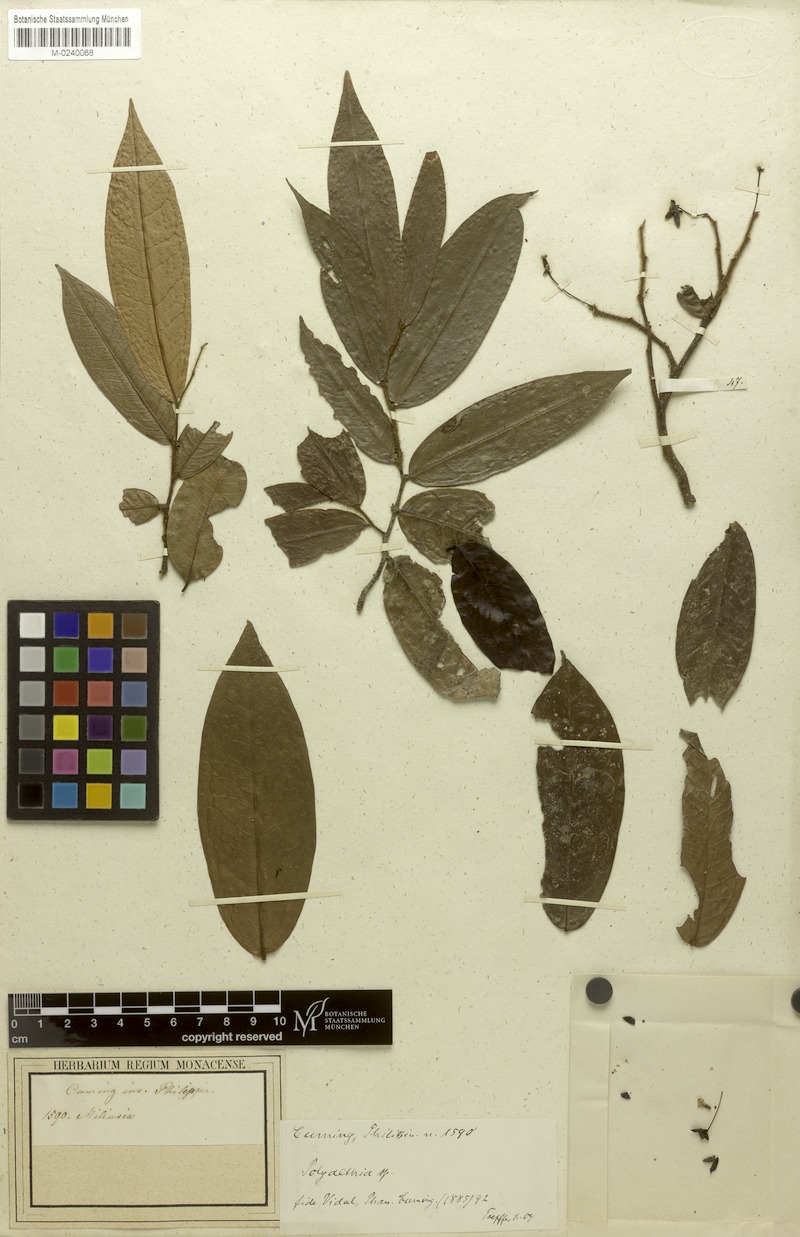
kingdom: Plantae
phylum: Tracheophyta
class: Magnoliopsida
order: Magnoliales
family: Annonaceae
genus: Polyalthia
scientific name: Polyalthia
